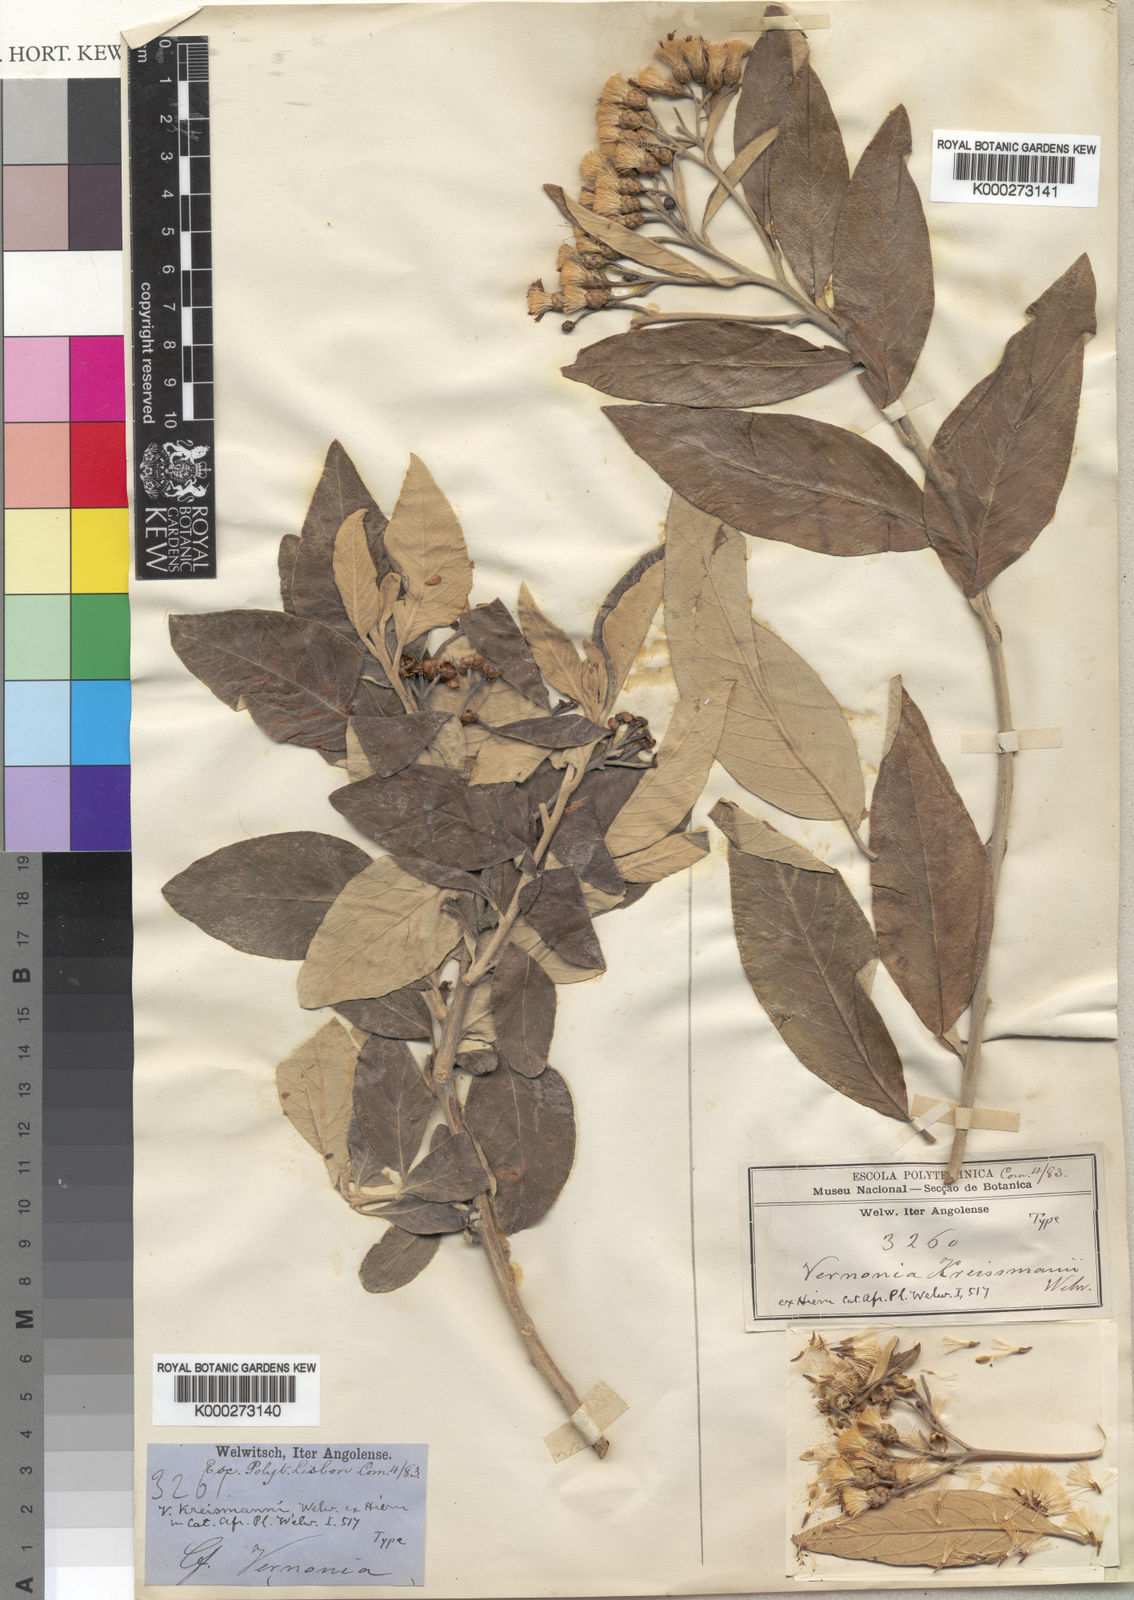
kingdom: Plantae
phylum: Tracheophyta
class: Magnoliopsida
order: Asterales
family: Asteraceae
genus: Gymnanthemum
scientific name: Gymnanthemum exsertiflorum
